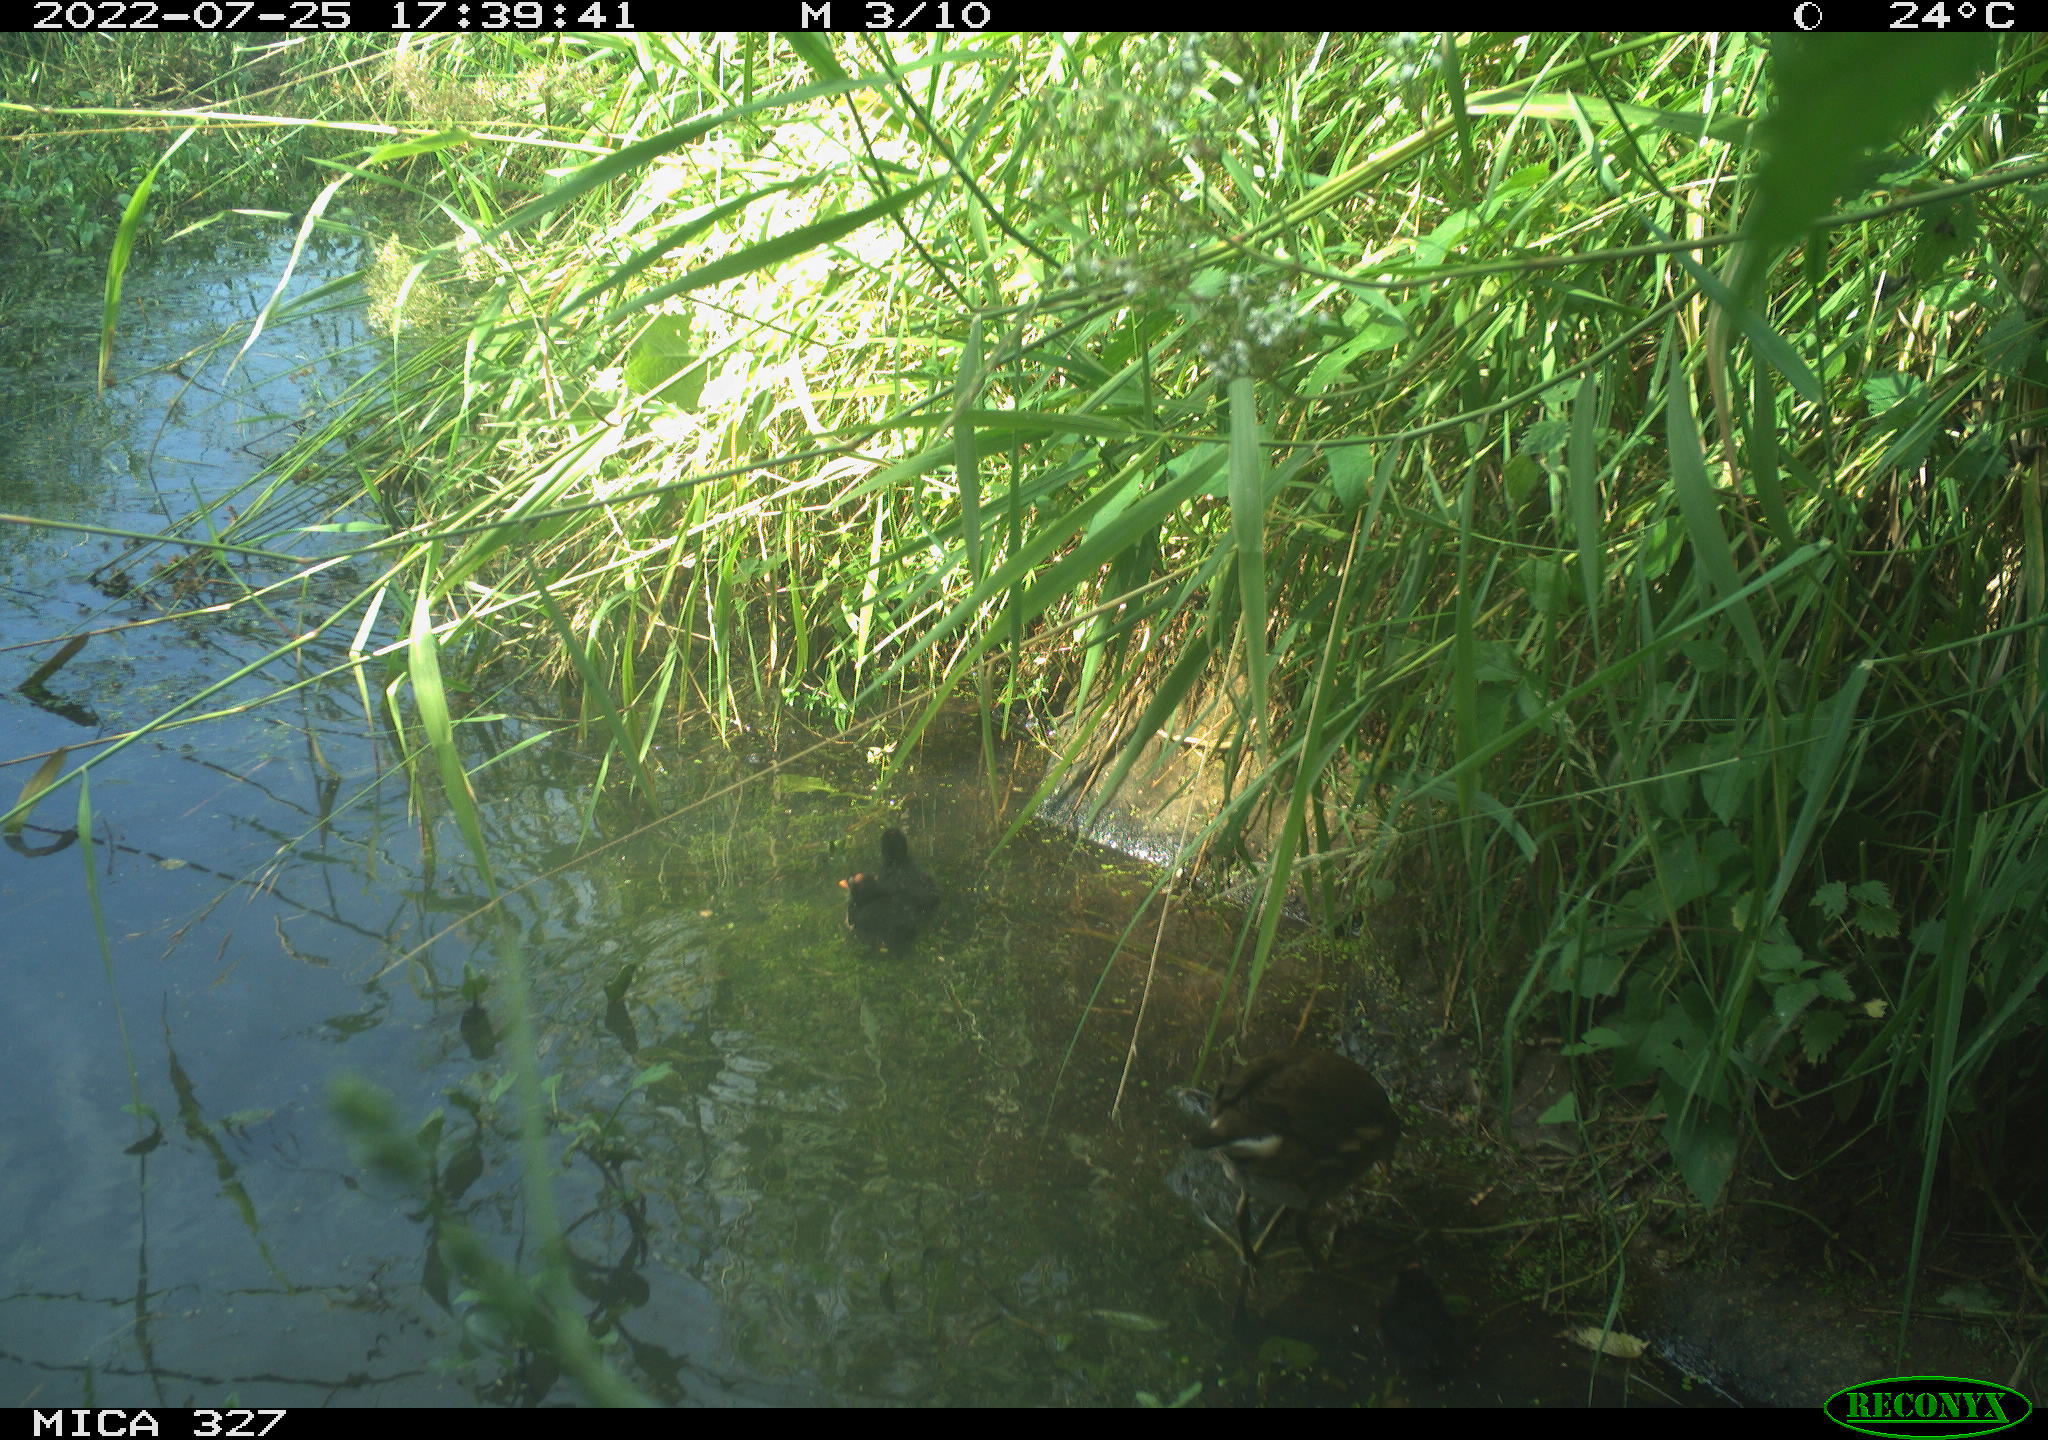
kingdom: Animalia
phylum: Chordata
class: Aves
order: Gruiformes
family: Rallidae
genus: Gallinula
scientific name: Gallinula chloropus
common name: Common moorhen
